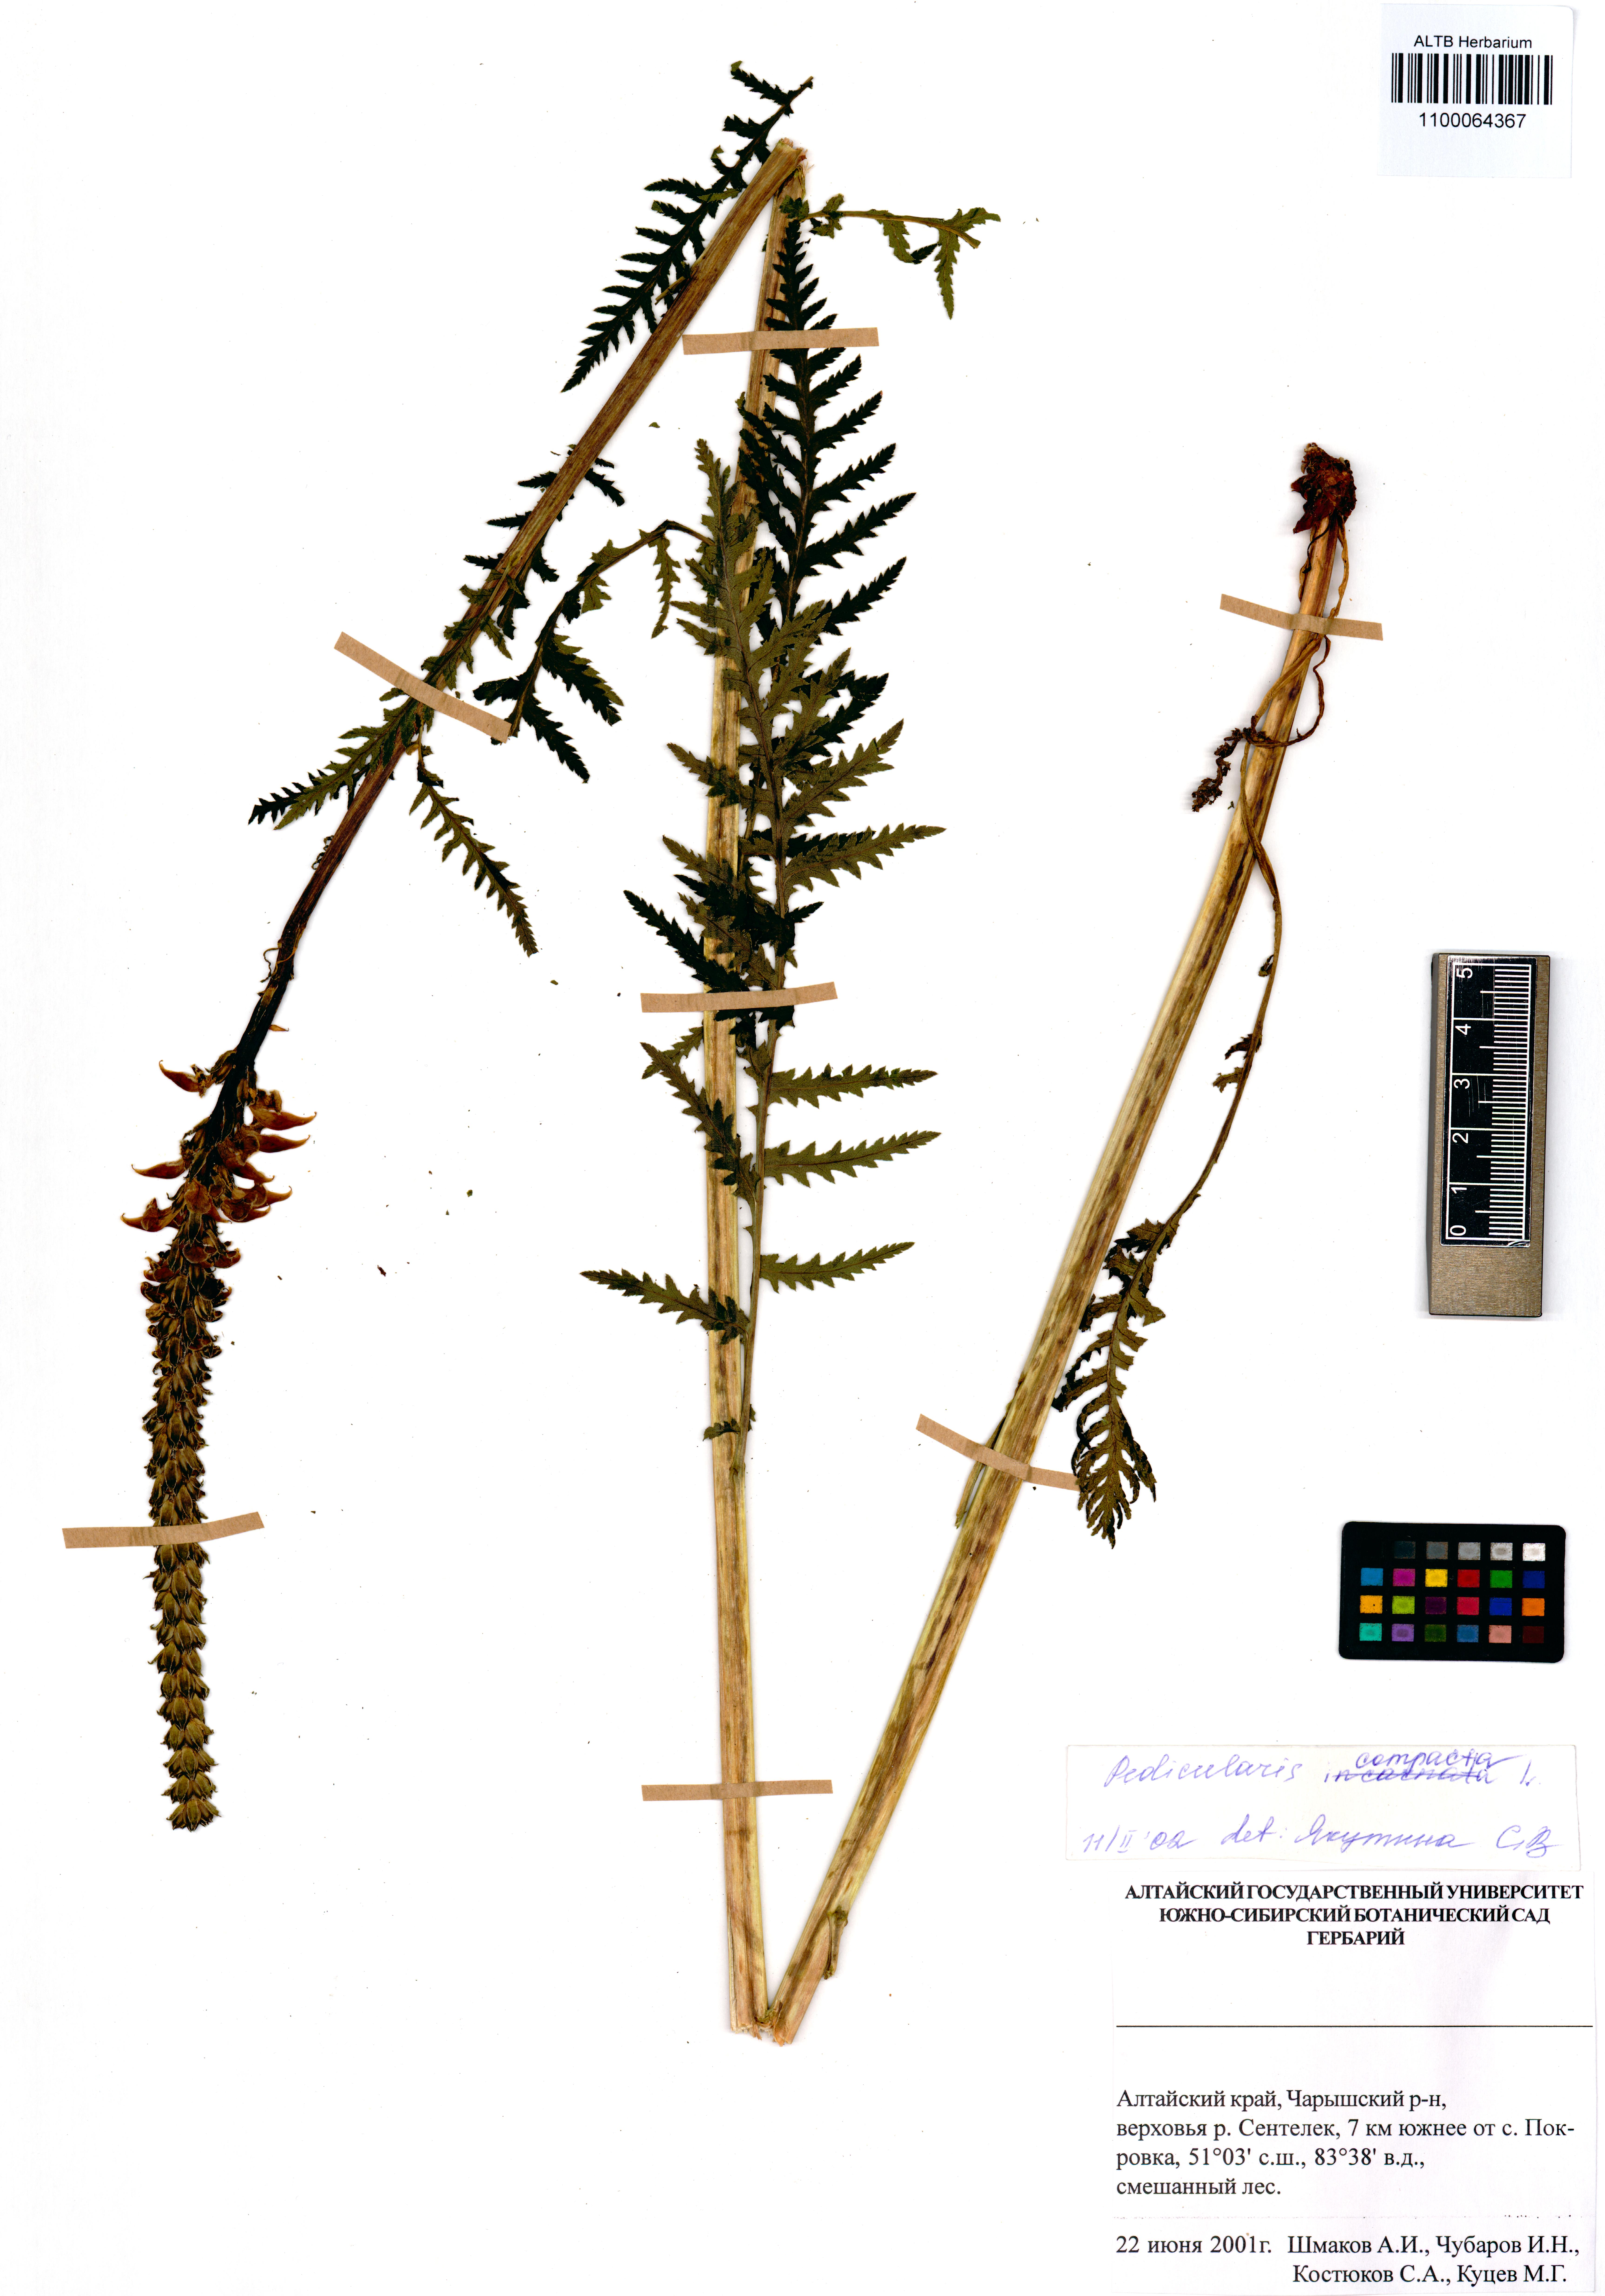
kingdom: Plantae
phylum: Tracheophyta
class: Magnoliopsida
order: Lamiales
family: Orobanchaceae
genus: Pedicularis
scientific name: Pedicularis compacta
